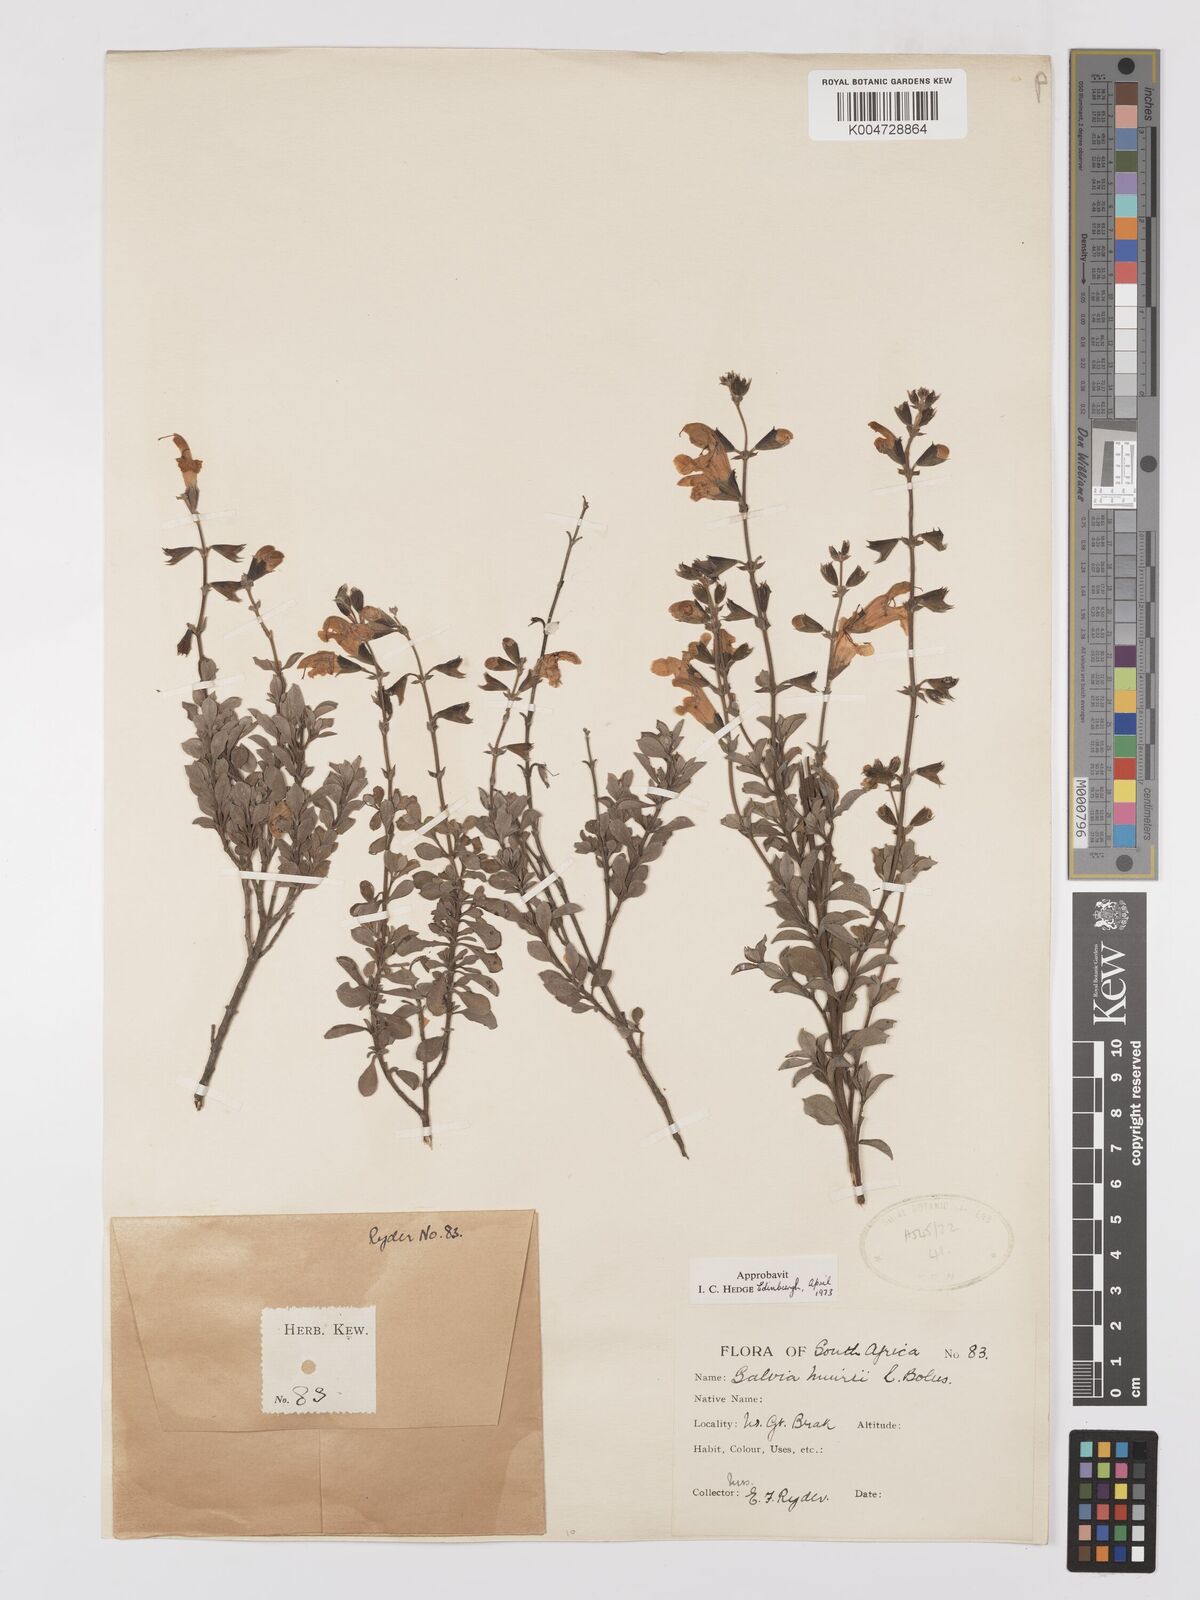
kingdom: Plantae
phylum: Tracheophyta
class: Magnoliopsida
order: Lamiales
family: Lamiaceae
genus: Salvia
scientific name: Salvia muirii
